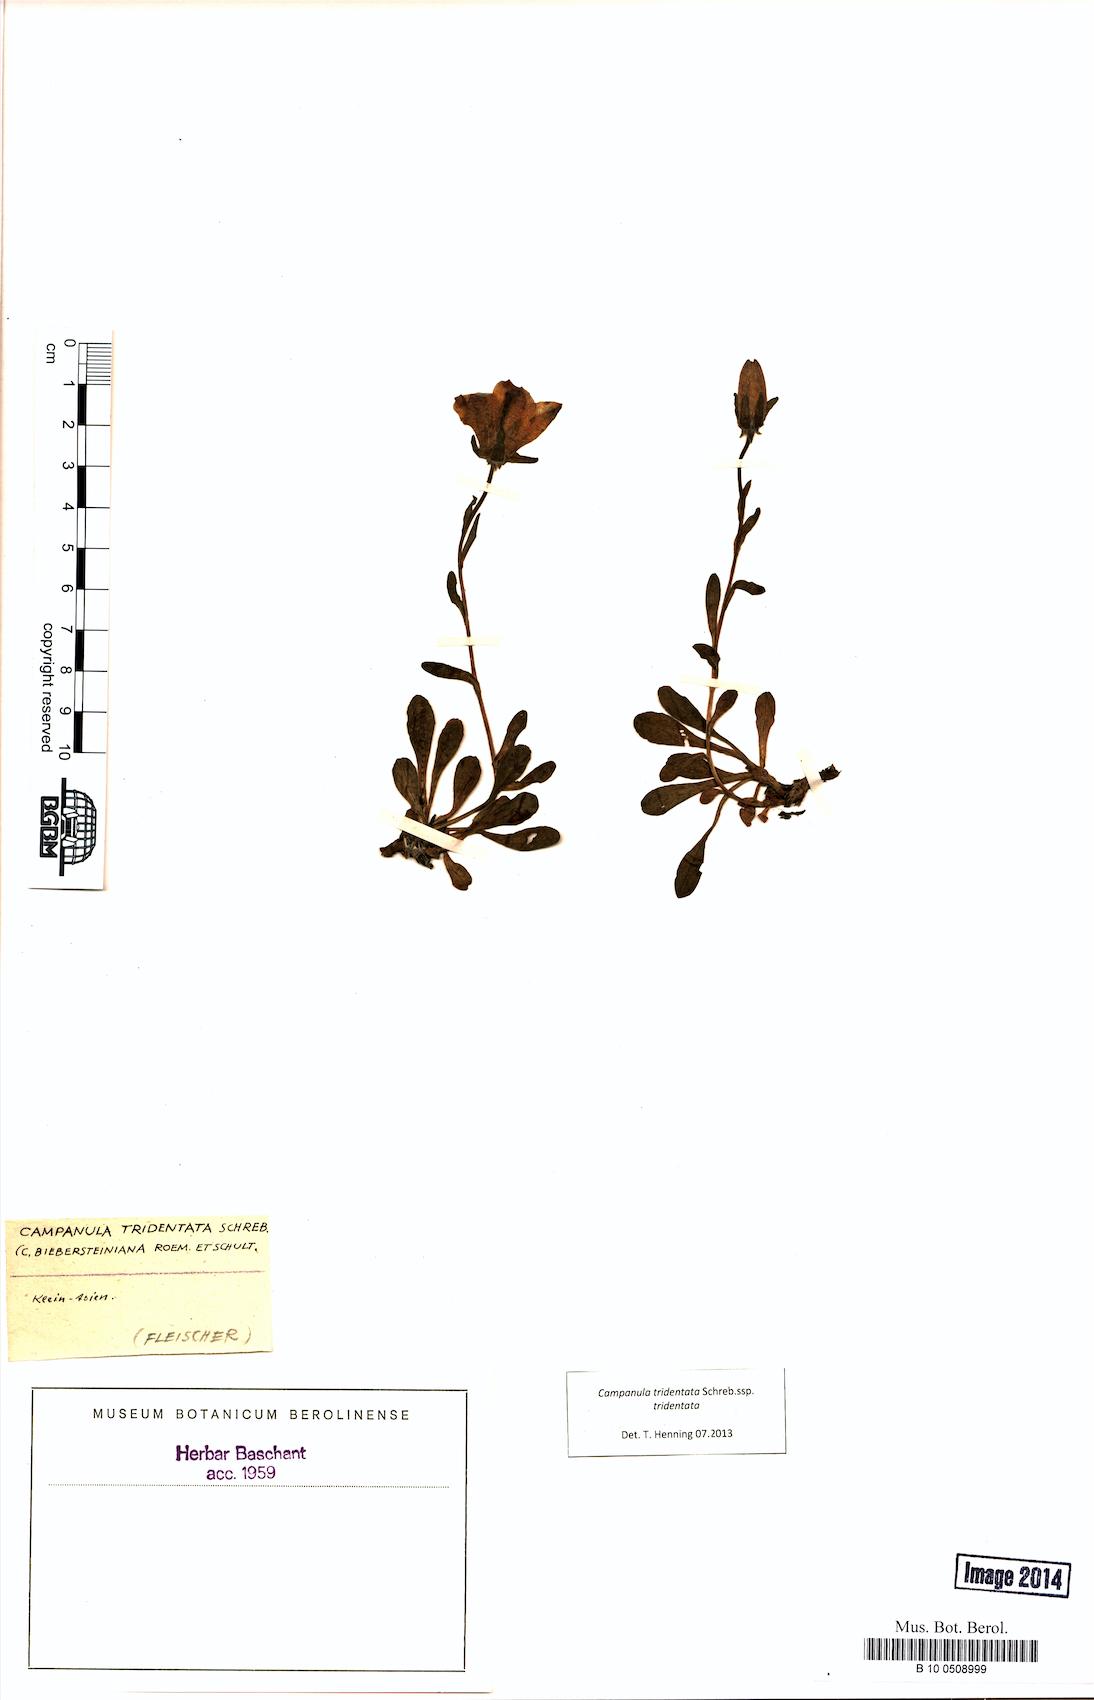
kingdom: Plantae
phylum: Tracheophyta
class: Magnoliopsida
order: Asterales
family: Campanulaceae
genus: Campanula
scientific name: Campanula tridentata
